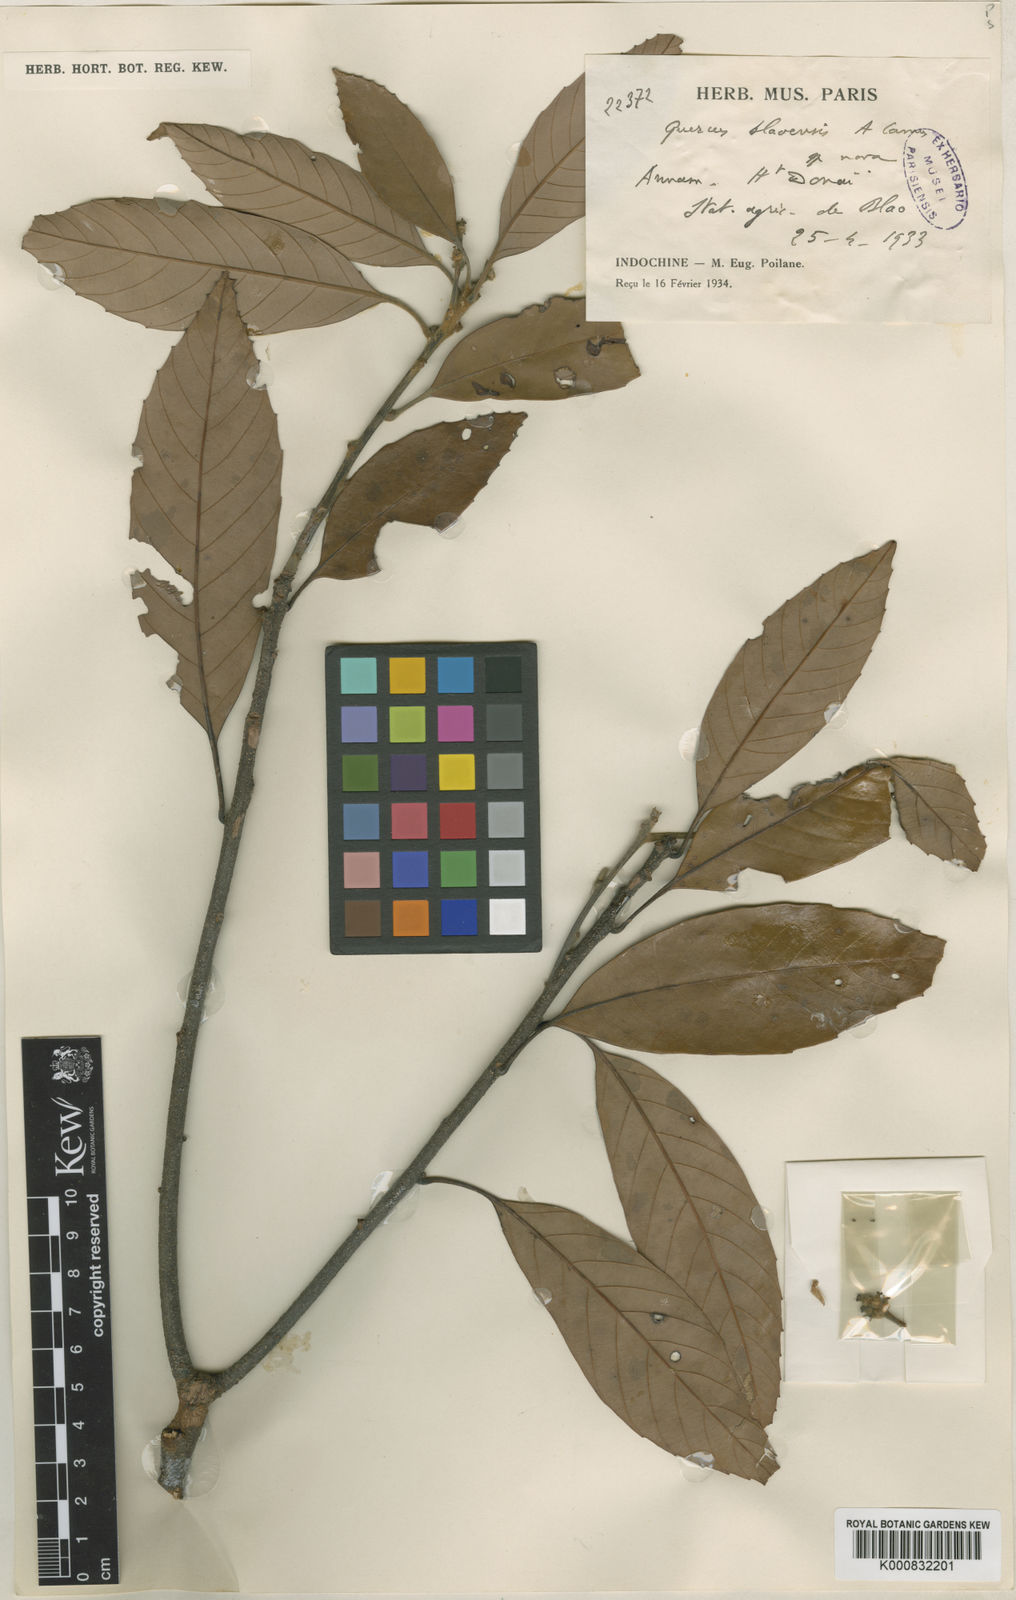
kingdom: Plantae
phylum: Tracheophyta
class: Magnoliopsida
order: Fagales
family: Fagaceae
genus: Quercus
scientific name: Quercus langbianensis
